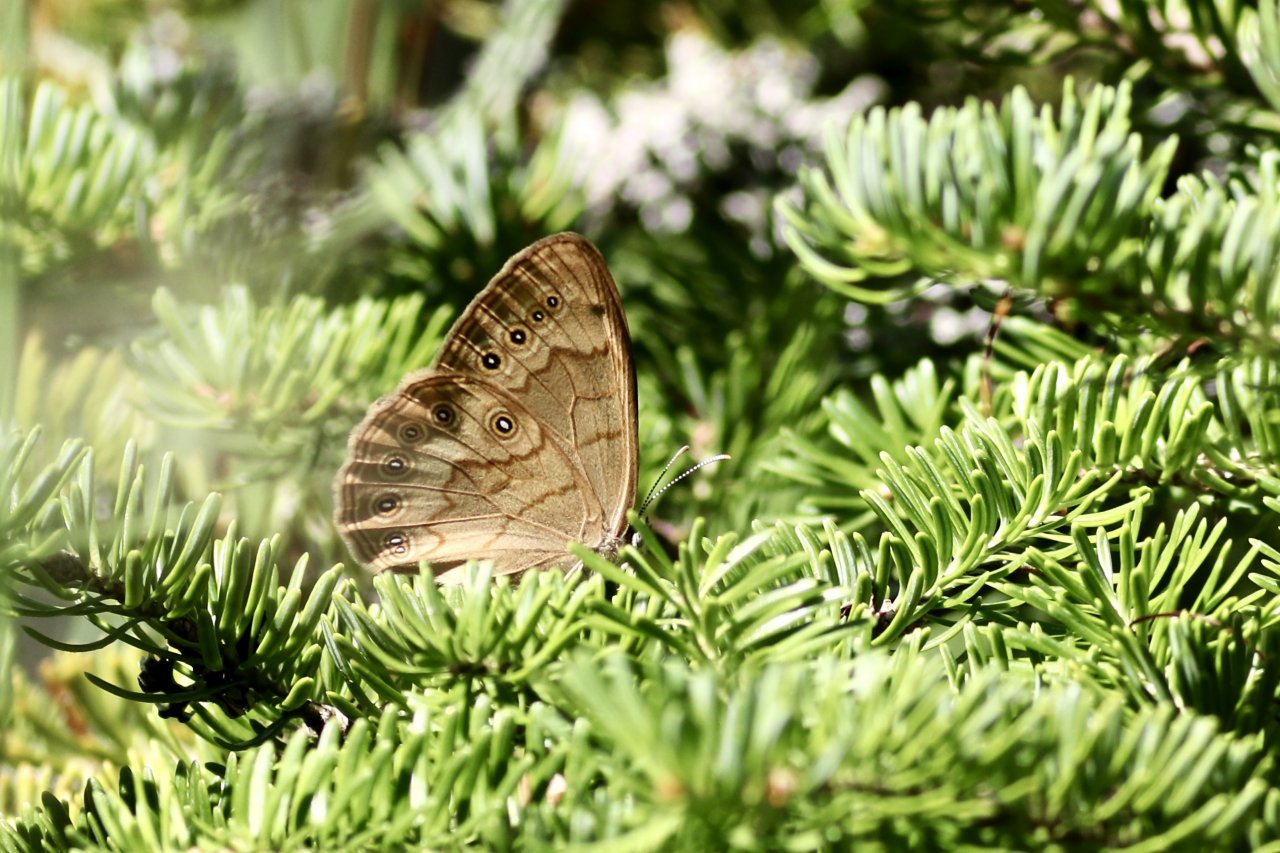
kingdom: Animalia
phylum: Arthropoda
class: Insecta
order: Lepidoptera
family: Nymphalidae
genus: Lethe
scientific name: Lethe eurydice
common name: Eyed Brown
